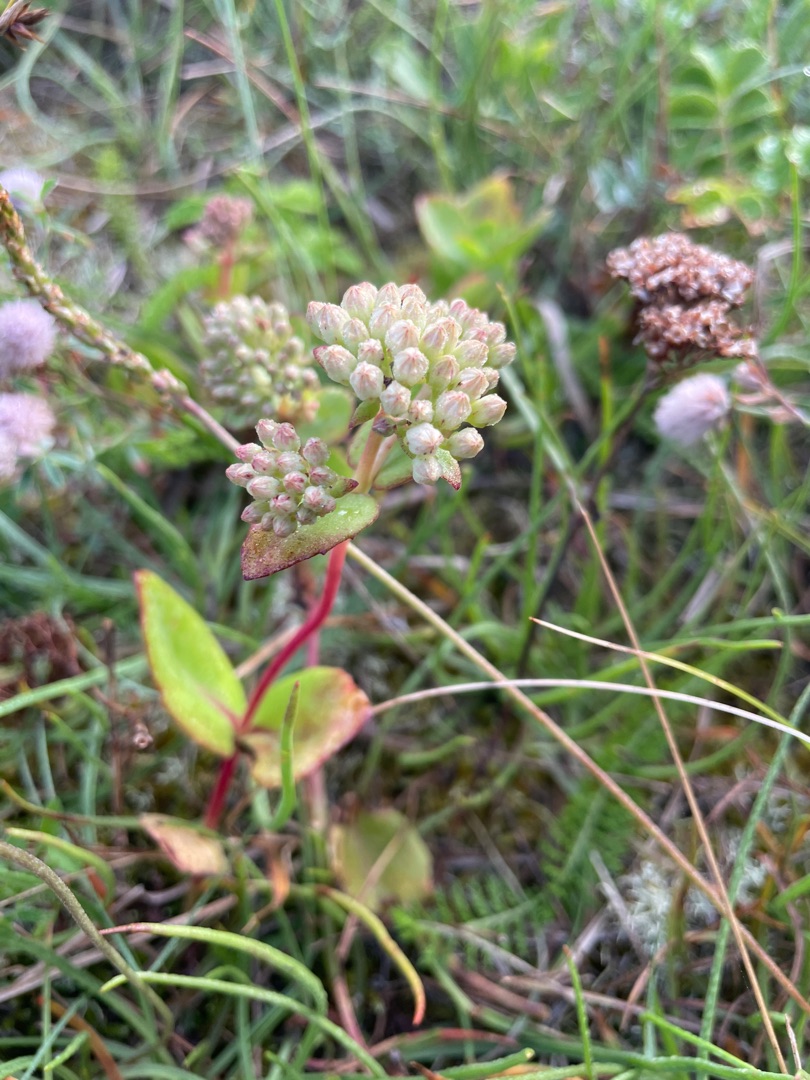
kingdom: Plantae
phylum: Tracheophyta
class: Magnoliopsida
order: Saxifragales
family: Crassulaceae
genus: Hylotelephium
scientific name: Hylotelephium maximum
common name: Almindelig sankthansurt
